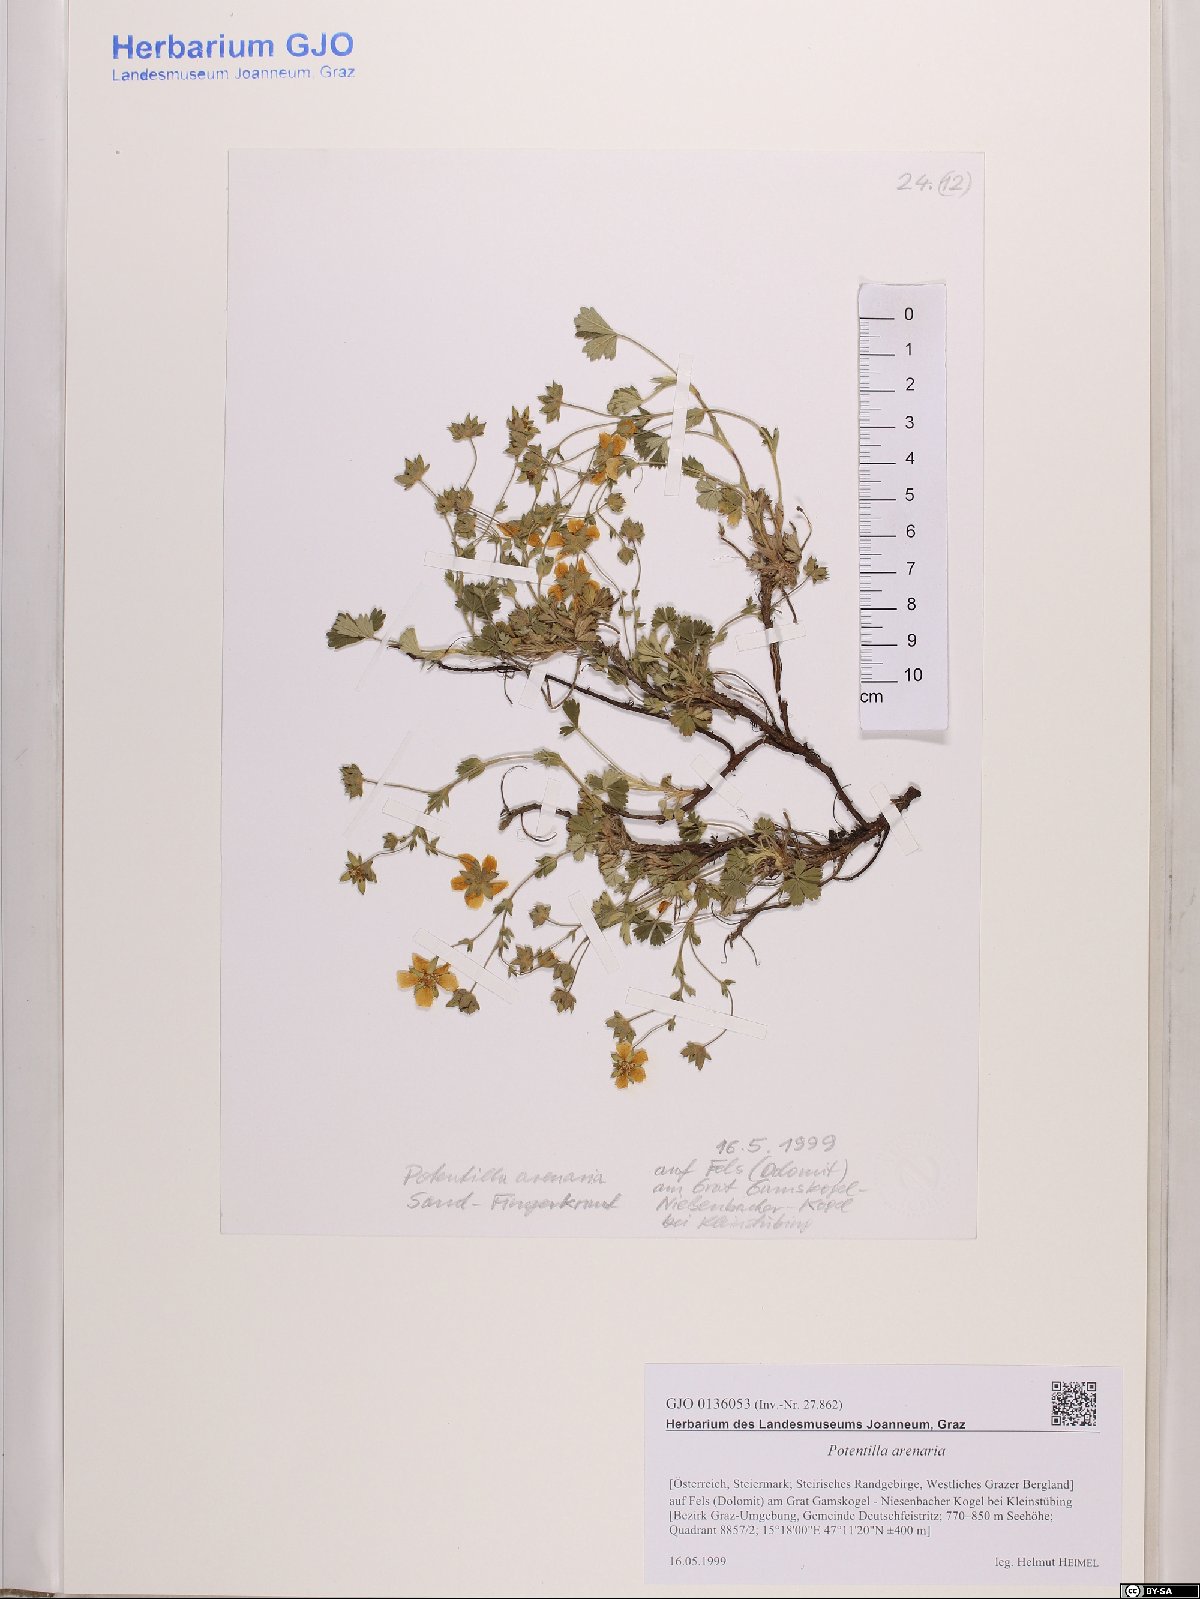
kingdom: Plantae
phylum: Tracheophyta
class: Magnoliopsida
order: Rosales
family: Rosaceae
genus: Potentilla
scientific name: Potentilla cinerea
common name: Ashy cinquefoil
